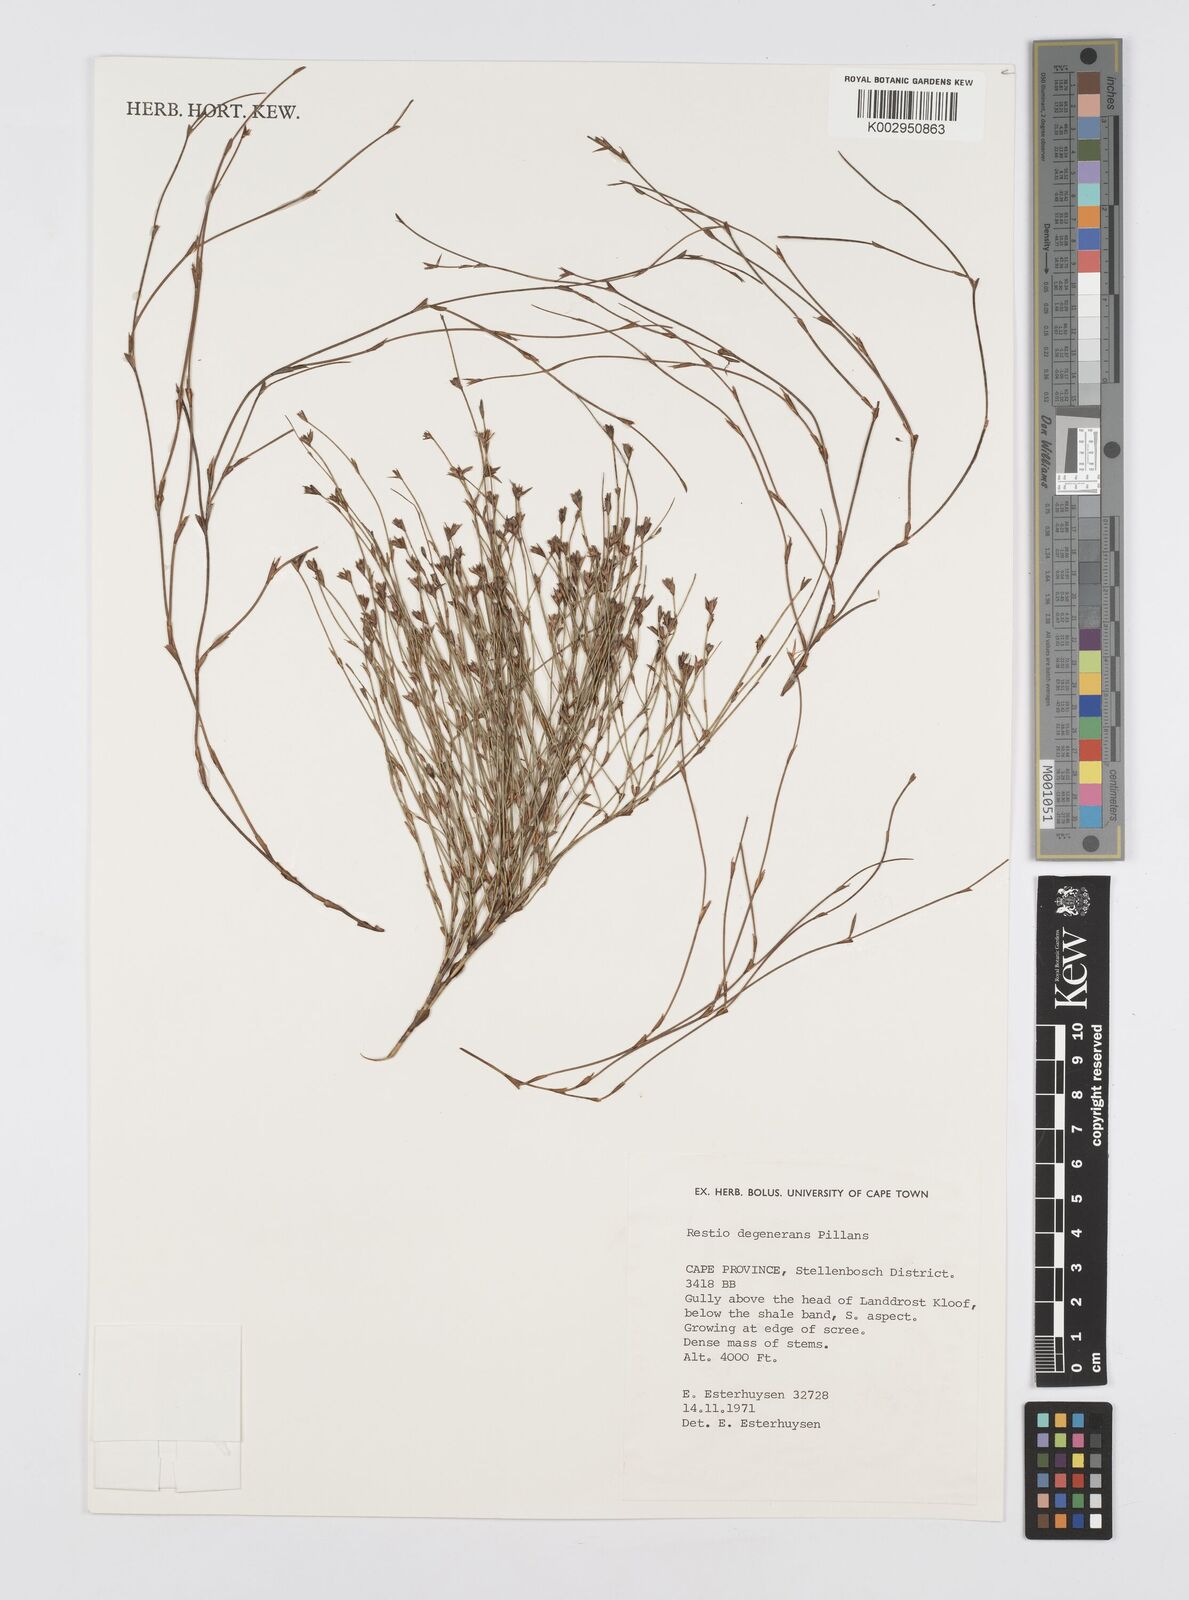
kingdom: Plantae
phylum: Tracheophyta
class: Liliopsida
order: Poales
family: Restionaceae
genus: Restio
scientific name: Restio degenerans
